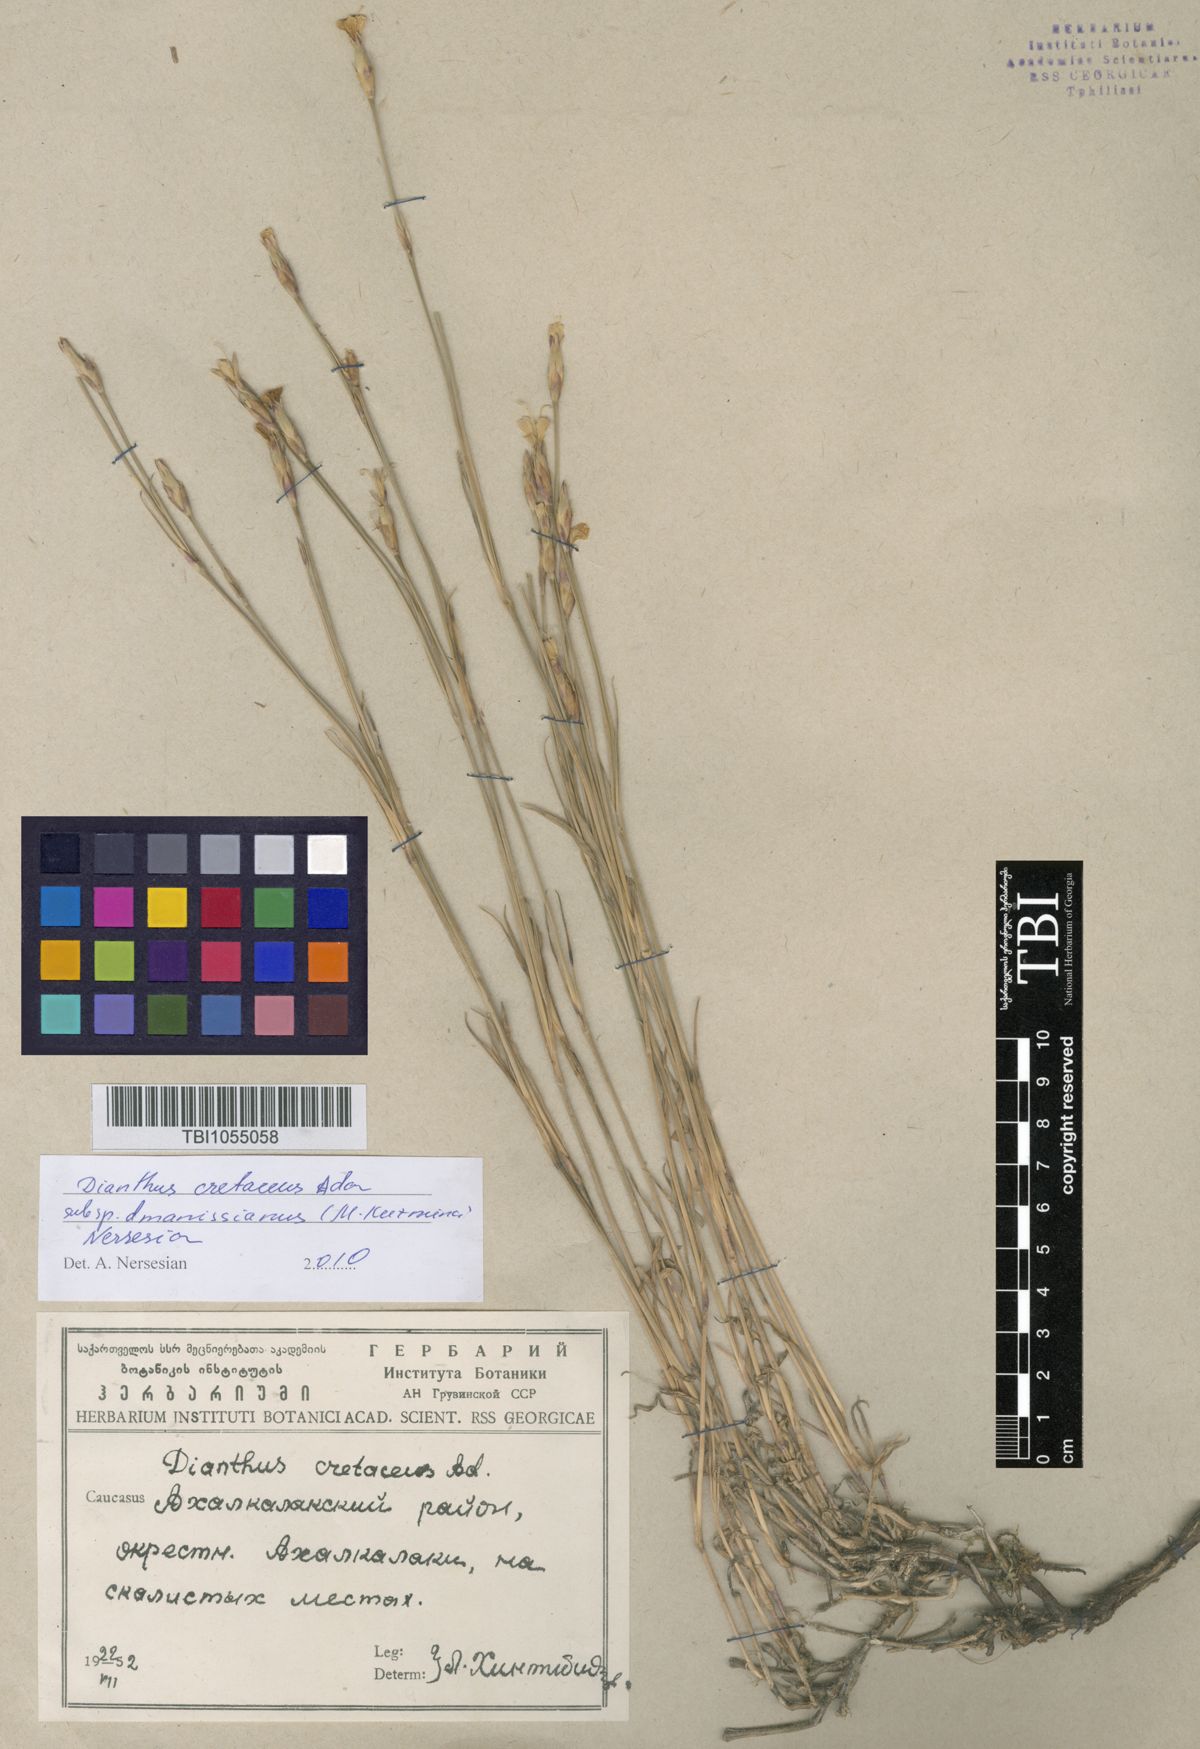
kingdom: Plantae
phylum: Tracheophyta
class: Magnoliopsida
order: Caryophyllales
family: Caryophyllaceae
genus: Dianthus
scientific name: Dianthus cretaceus
